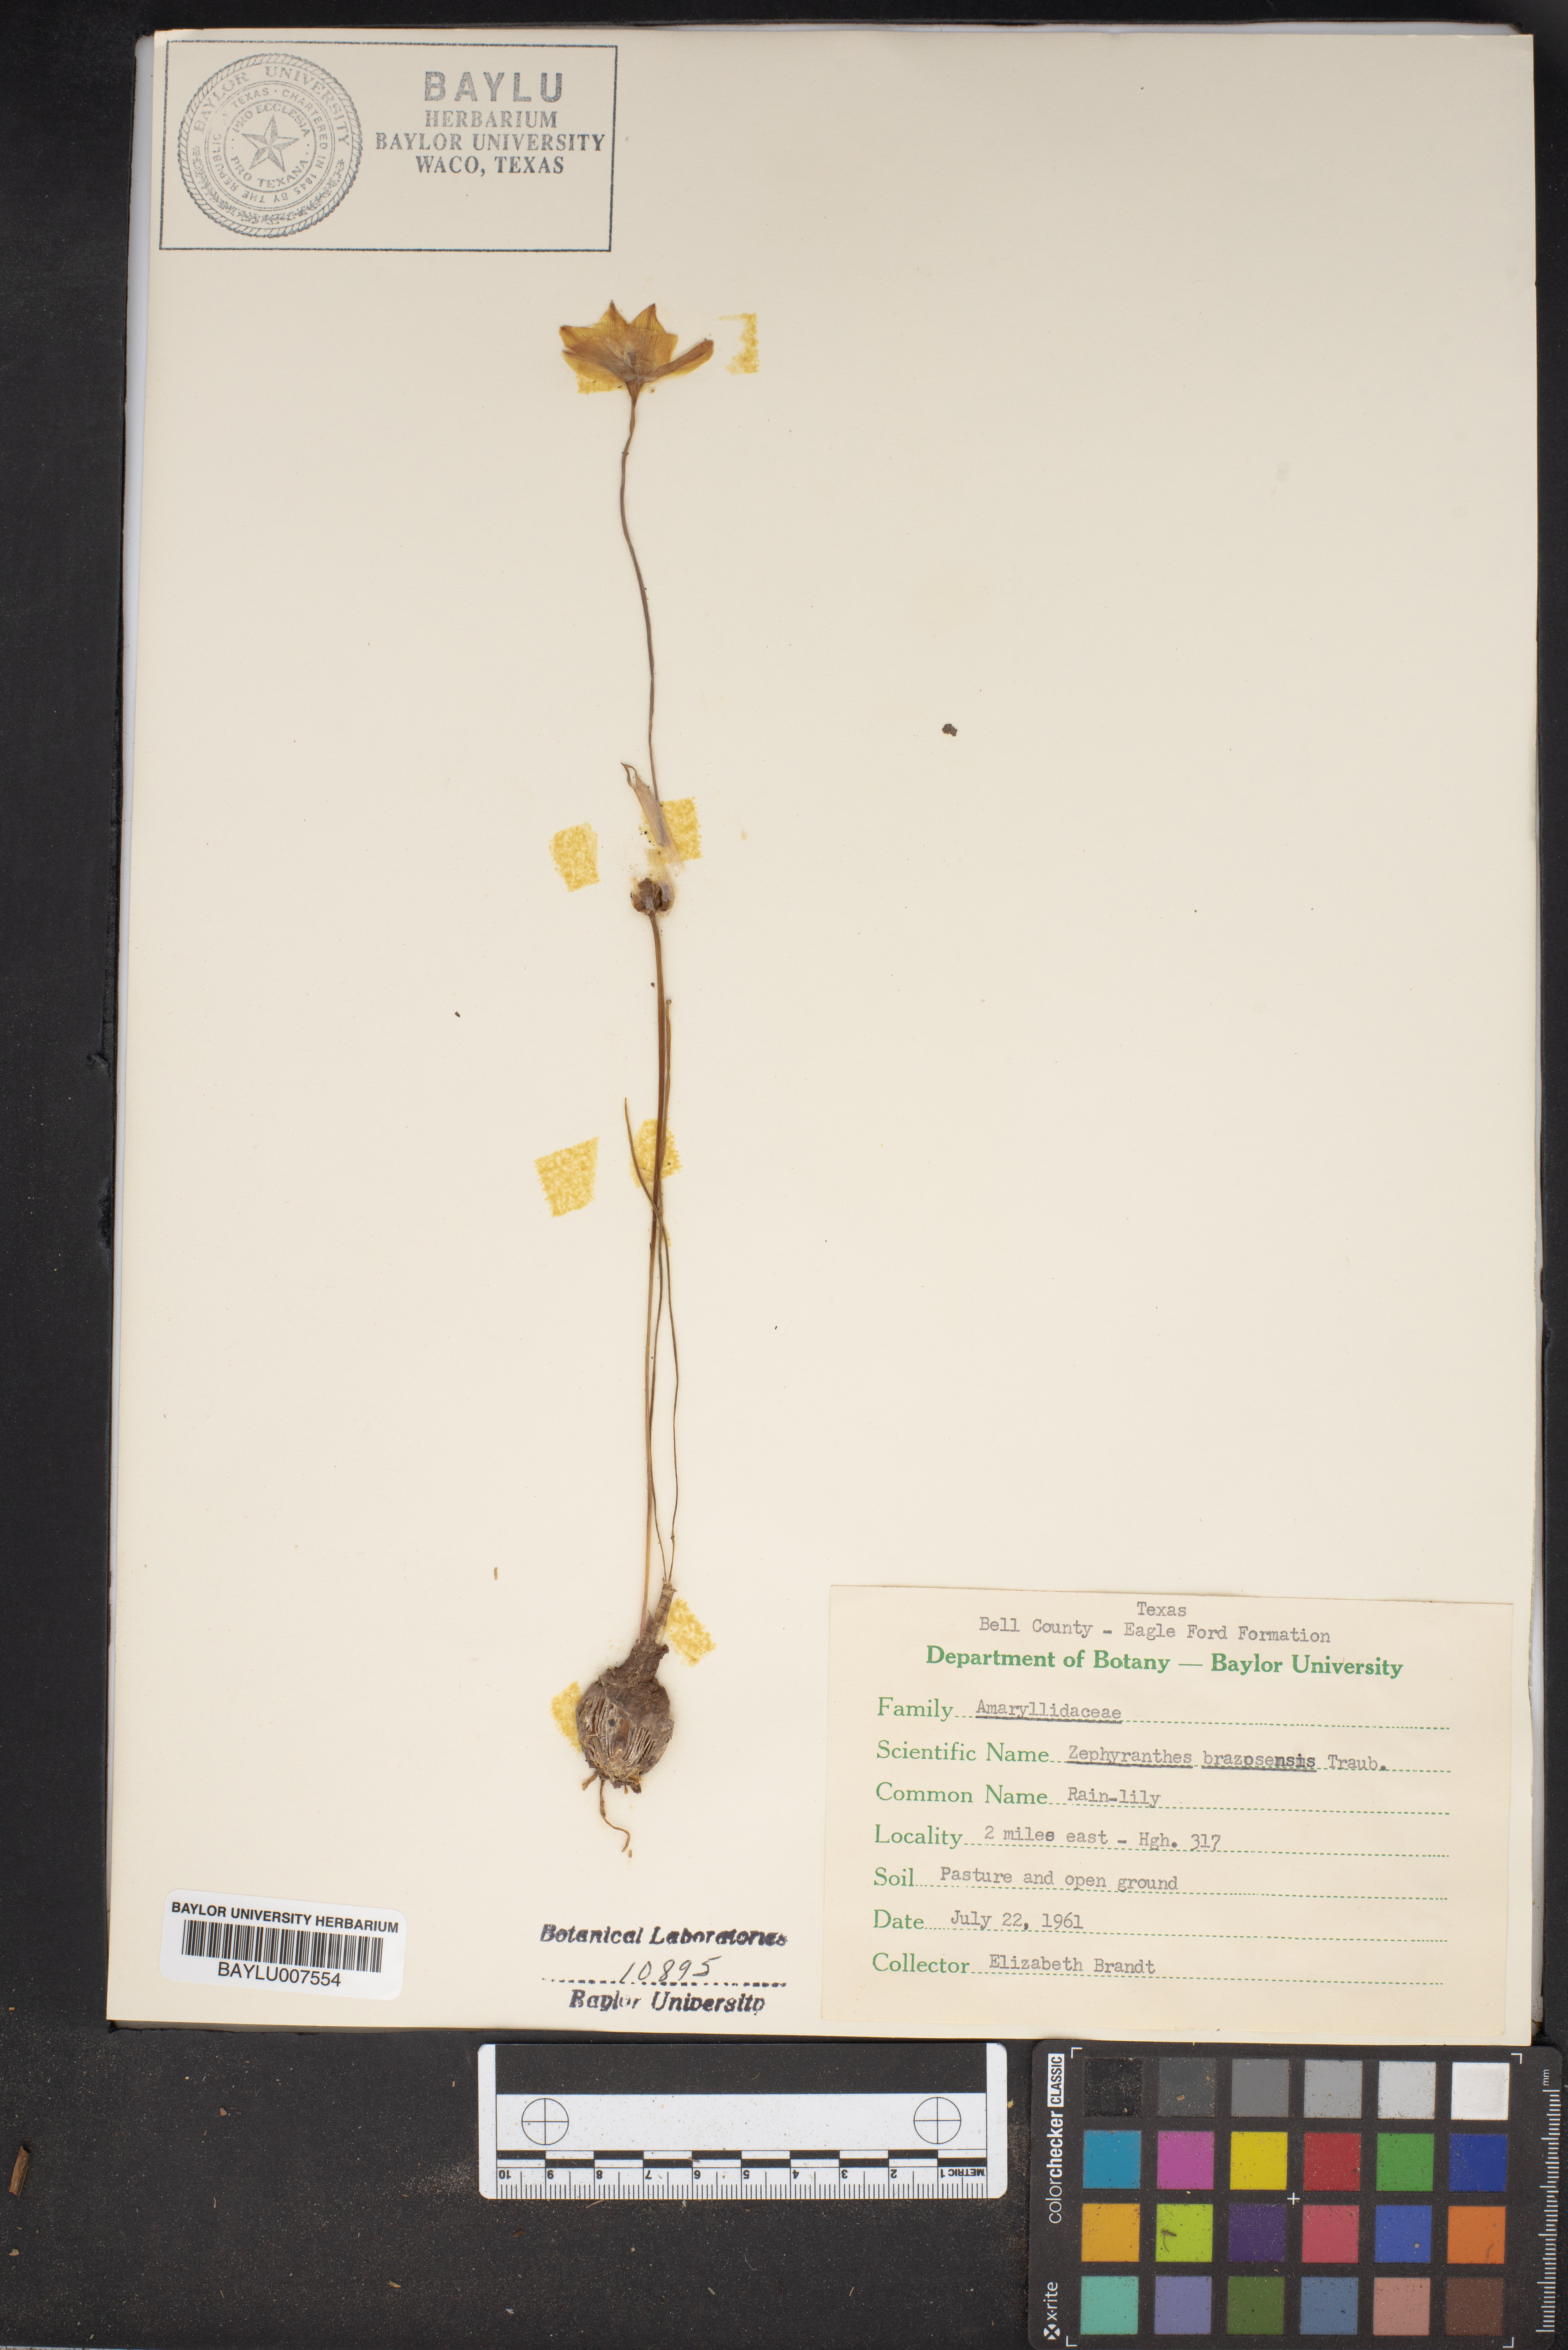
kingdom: Plantae
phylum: Tracheophyta
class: Liliopsida
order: Asparagales
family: Amaryllidaceae
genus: Zephyranthes
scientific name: Zephyranthes chlorosolen
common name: Evening rain-lily
